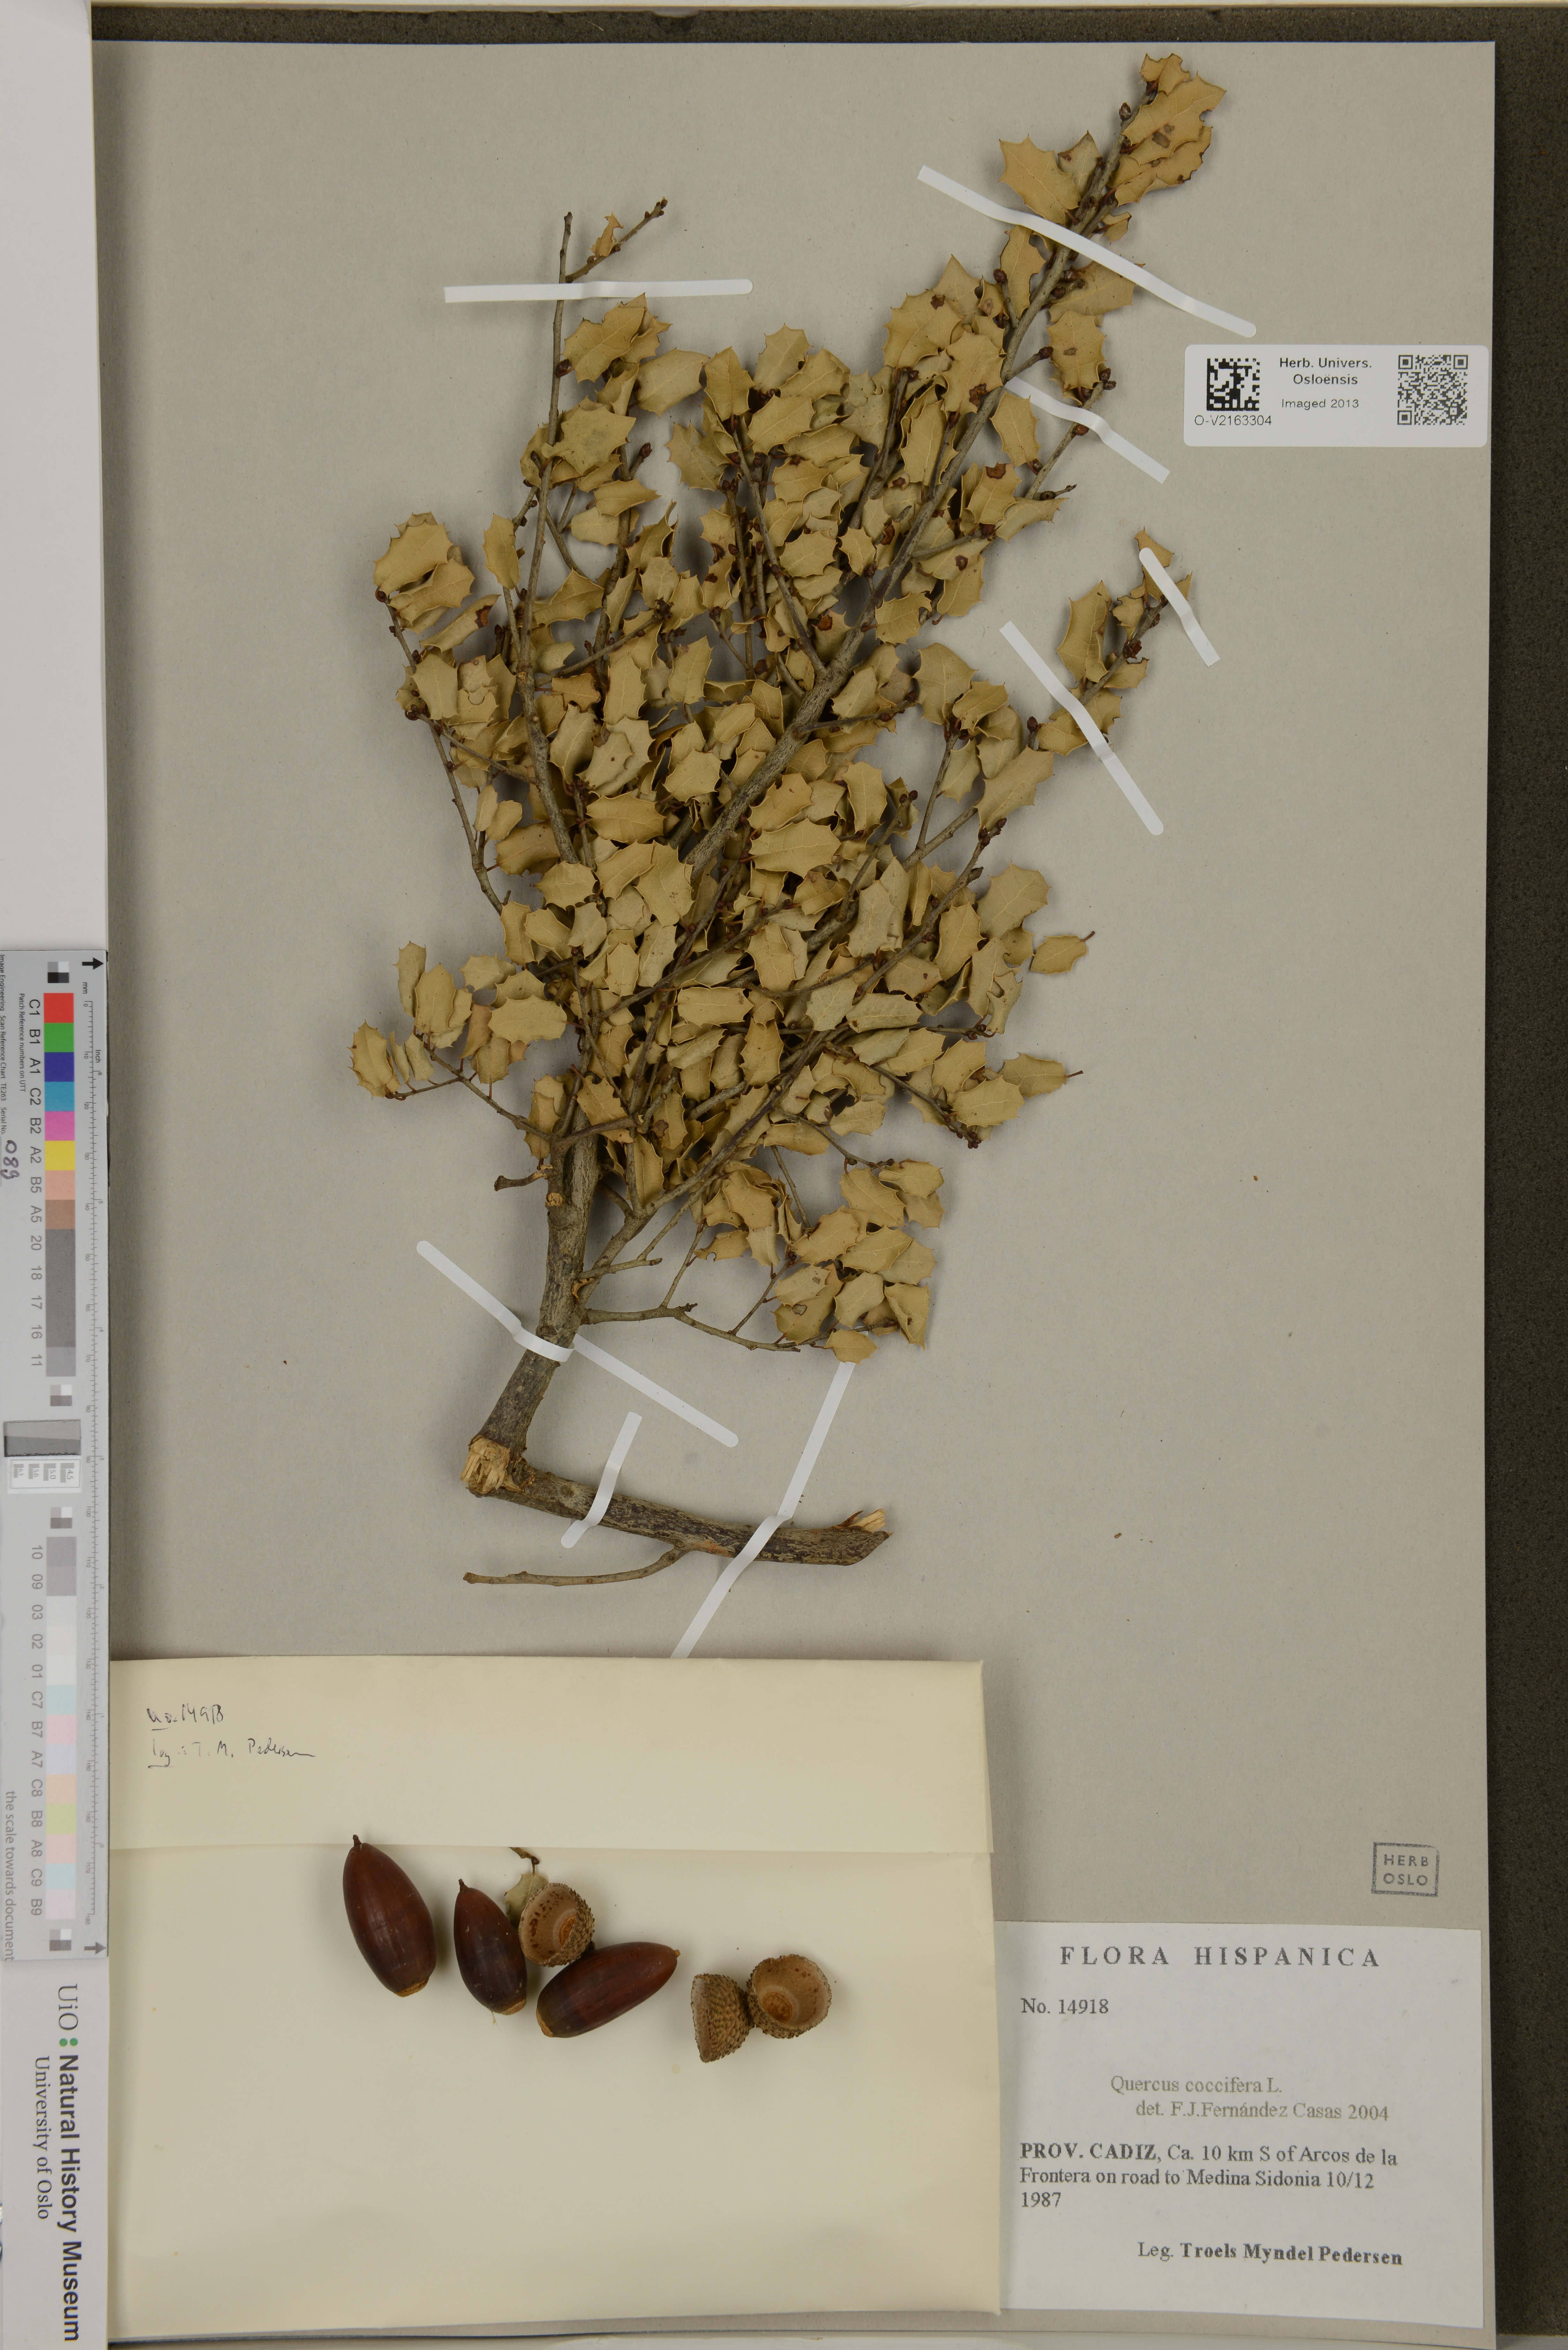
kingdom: Plantae
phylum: Tracheophyta
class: Magnoliopsida
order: Fagales
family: Fagaceae
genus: Quercus
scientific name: Quercus coccifera
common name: Kermes oak
